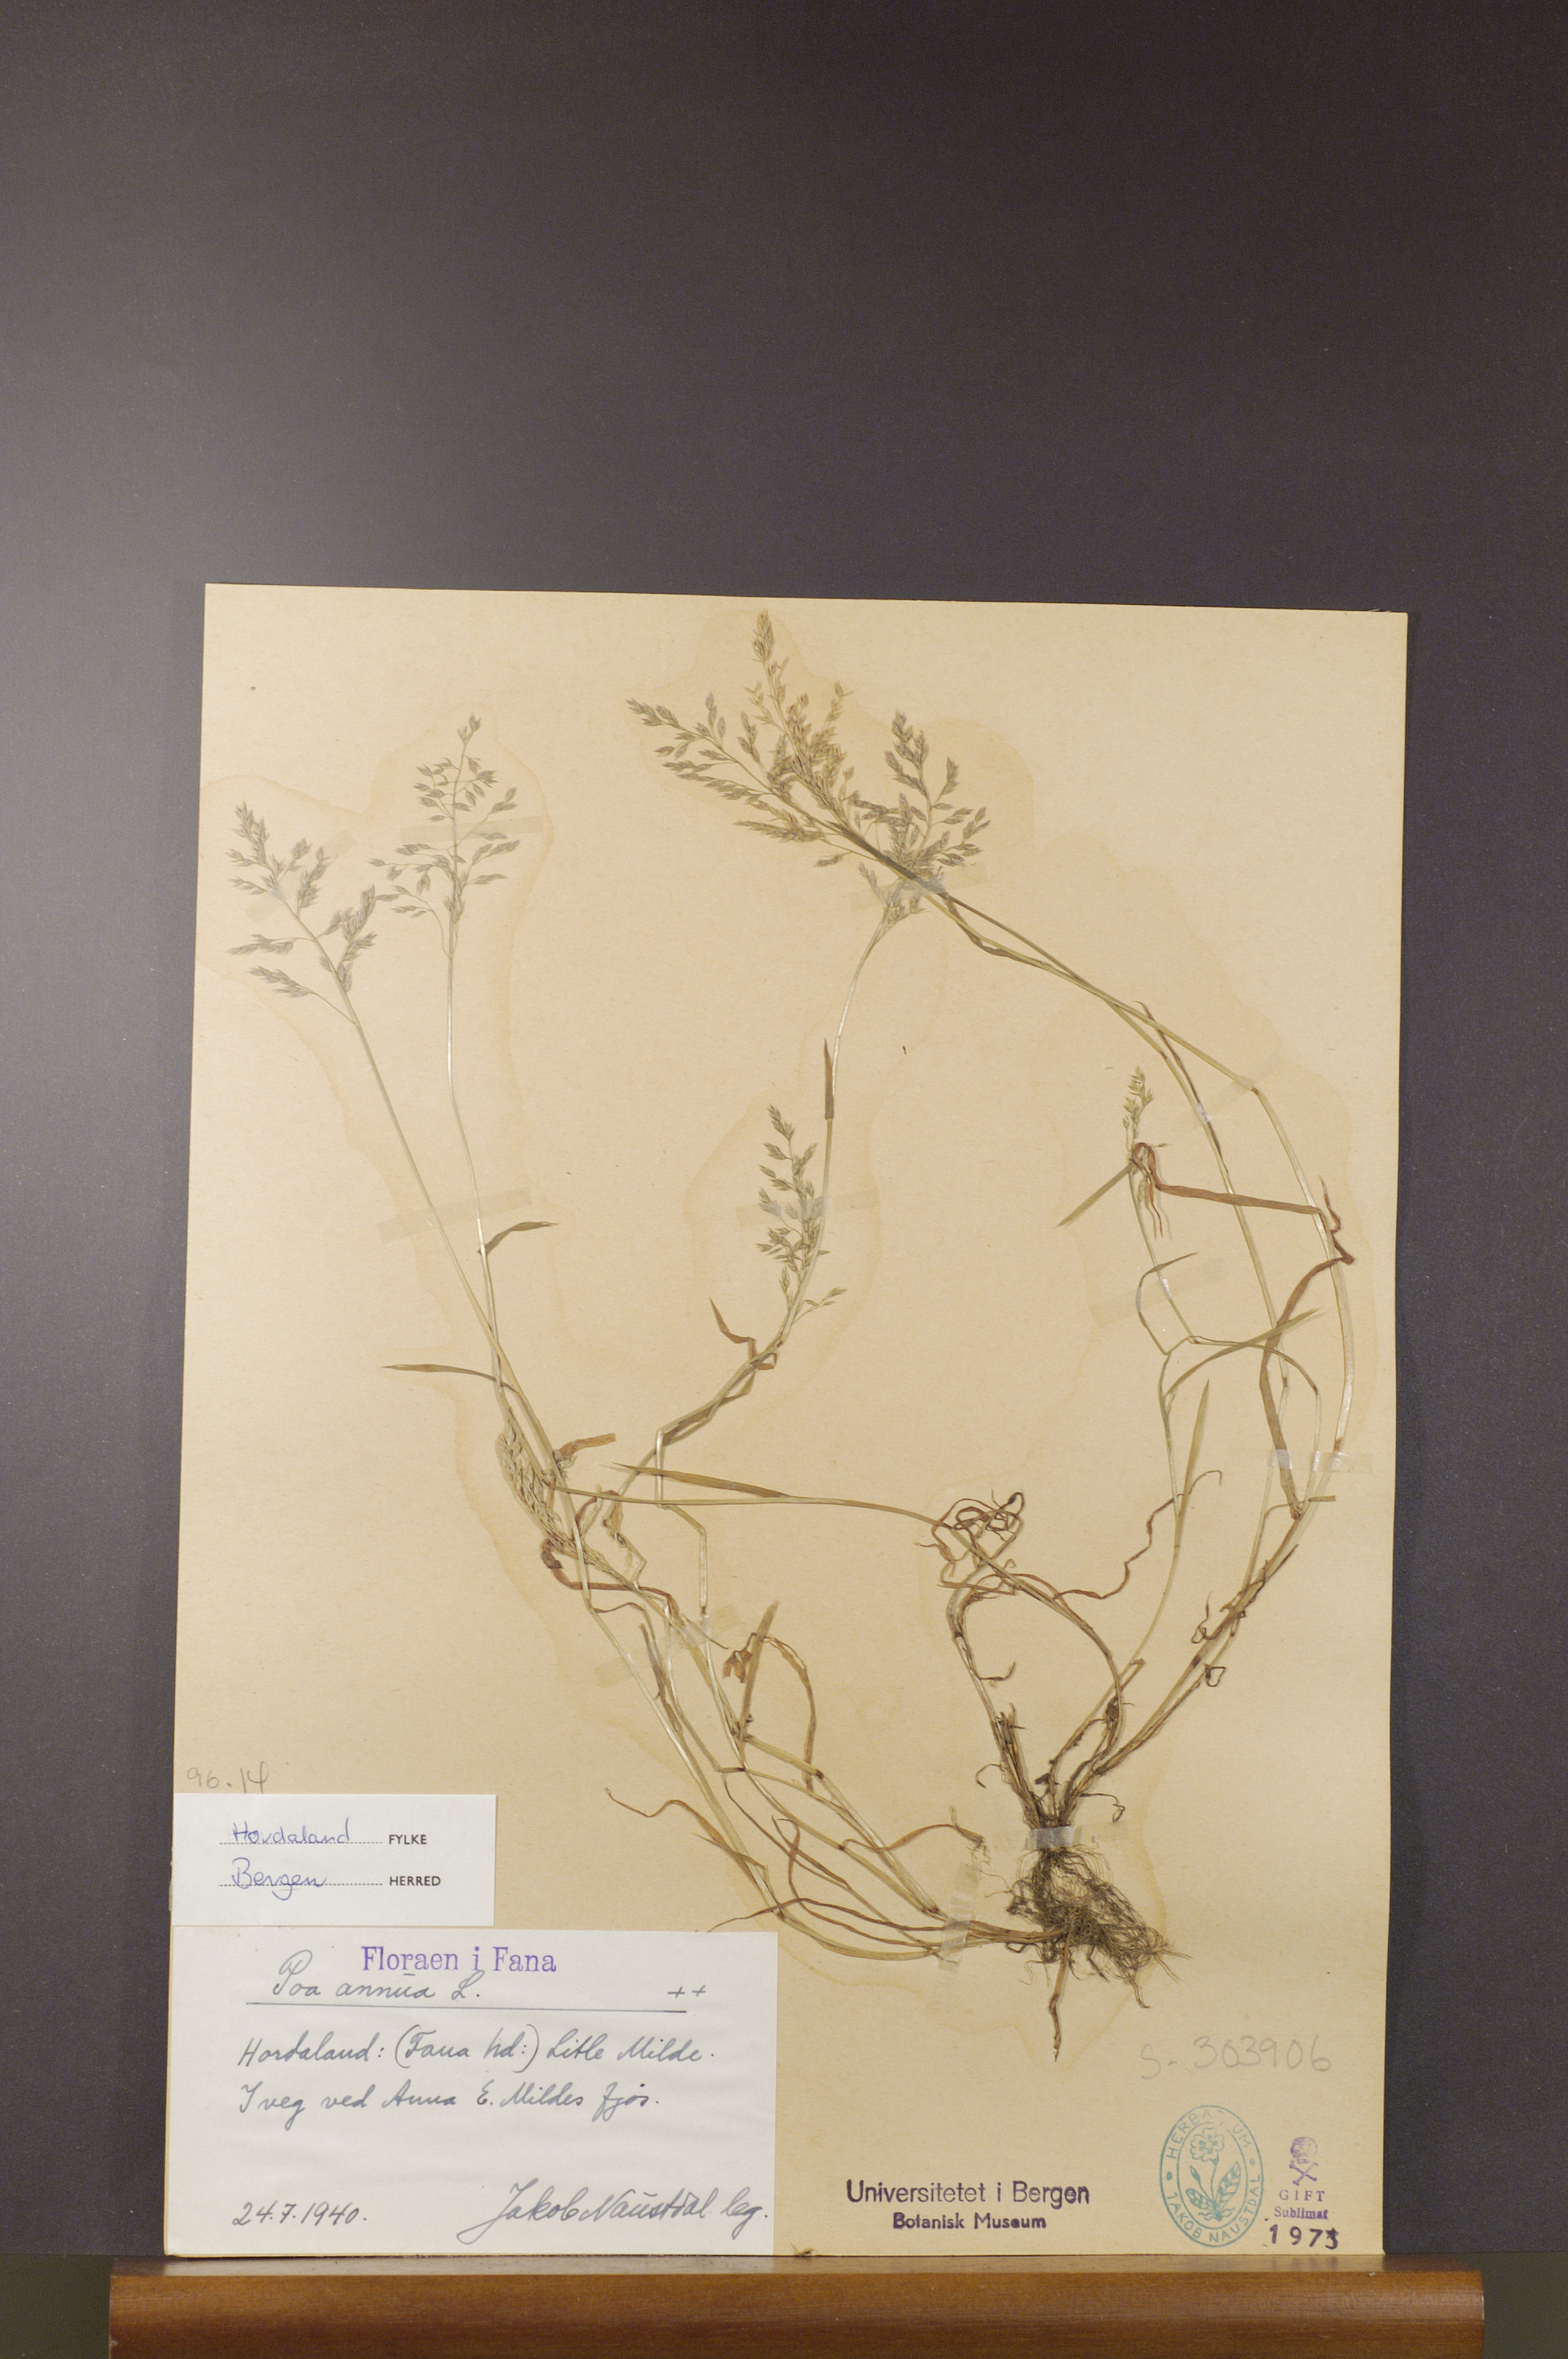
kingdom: Plantae
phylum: Tracheophyta
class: Liliopsida
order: Poales
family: Poaceae
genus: Poa
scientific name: Poa annua
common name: Annual bluegrass
